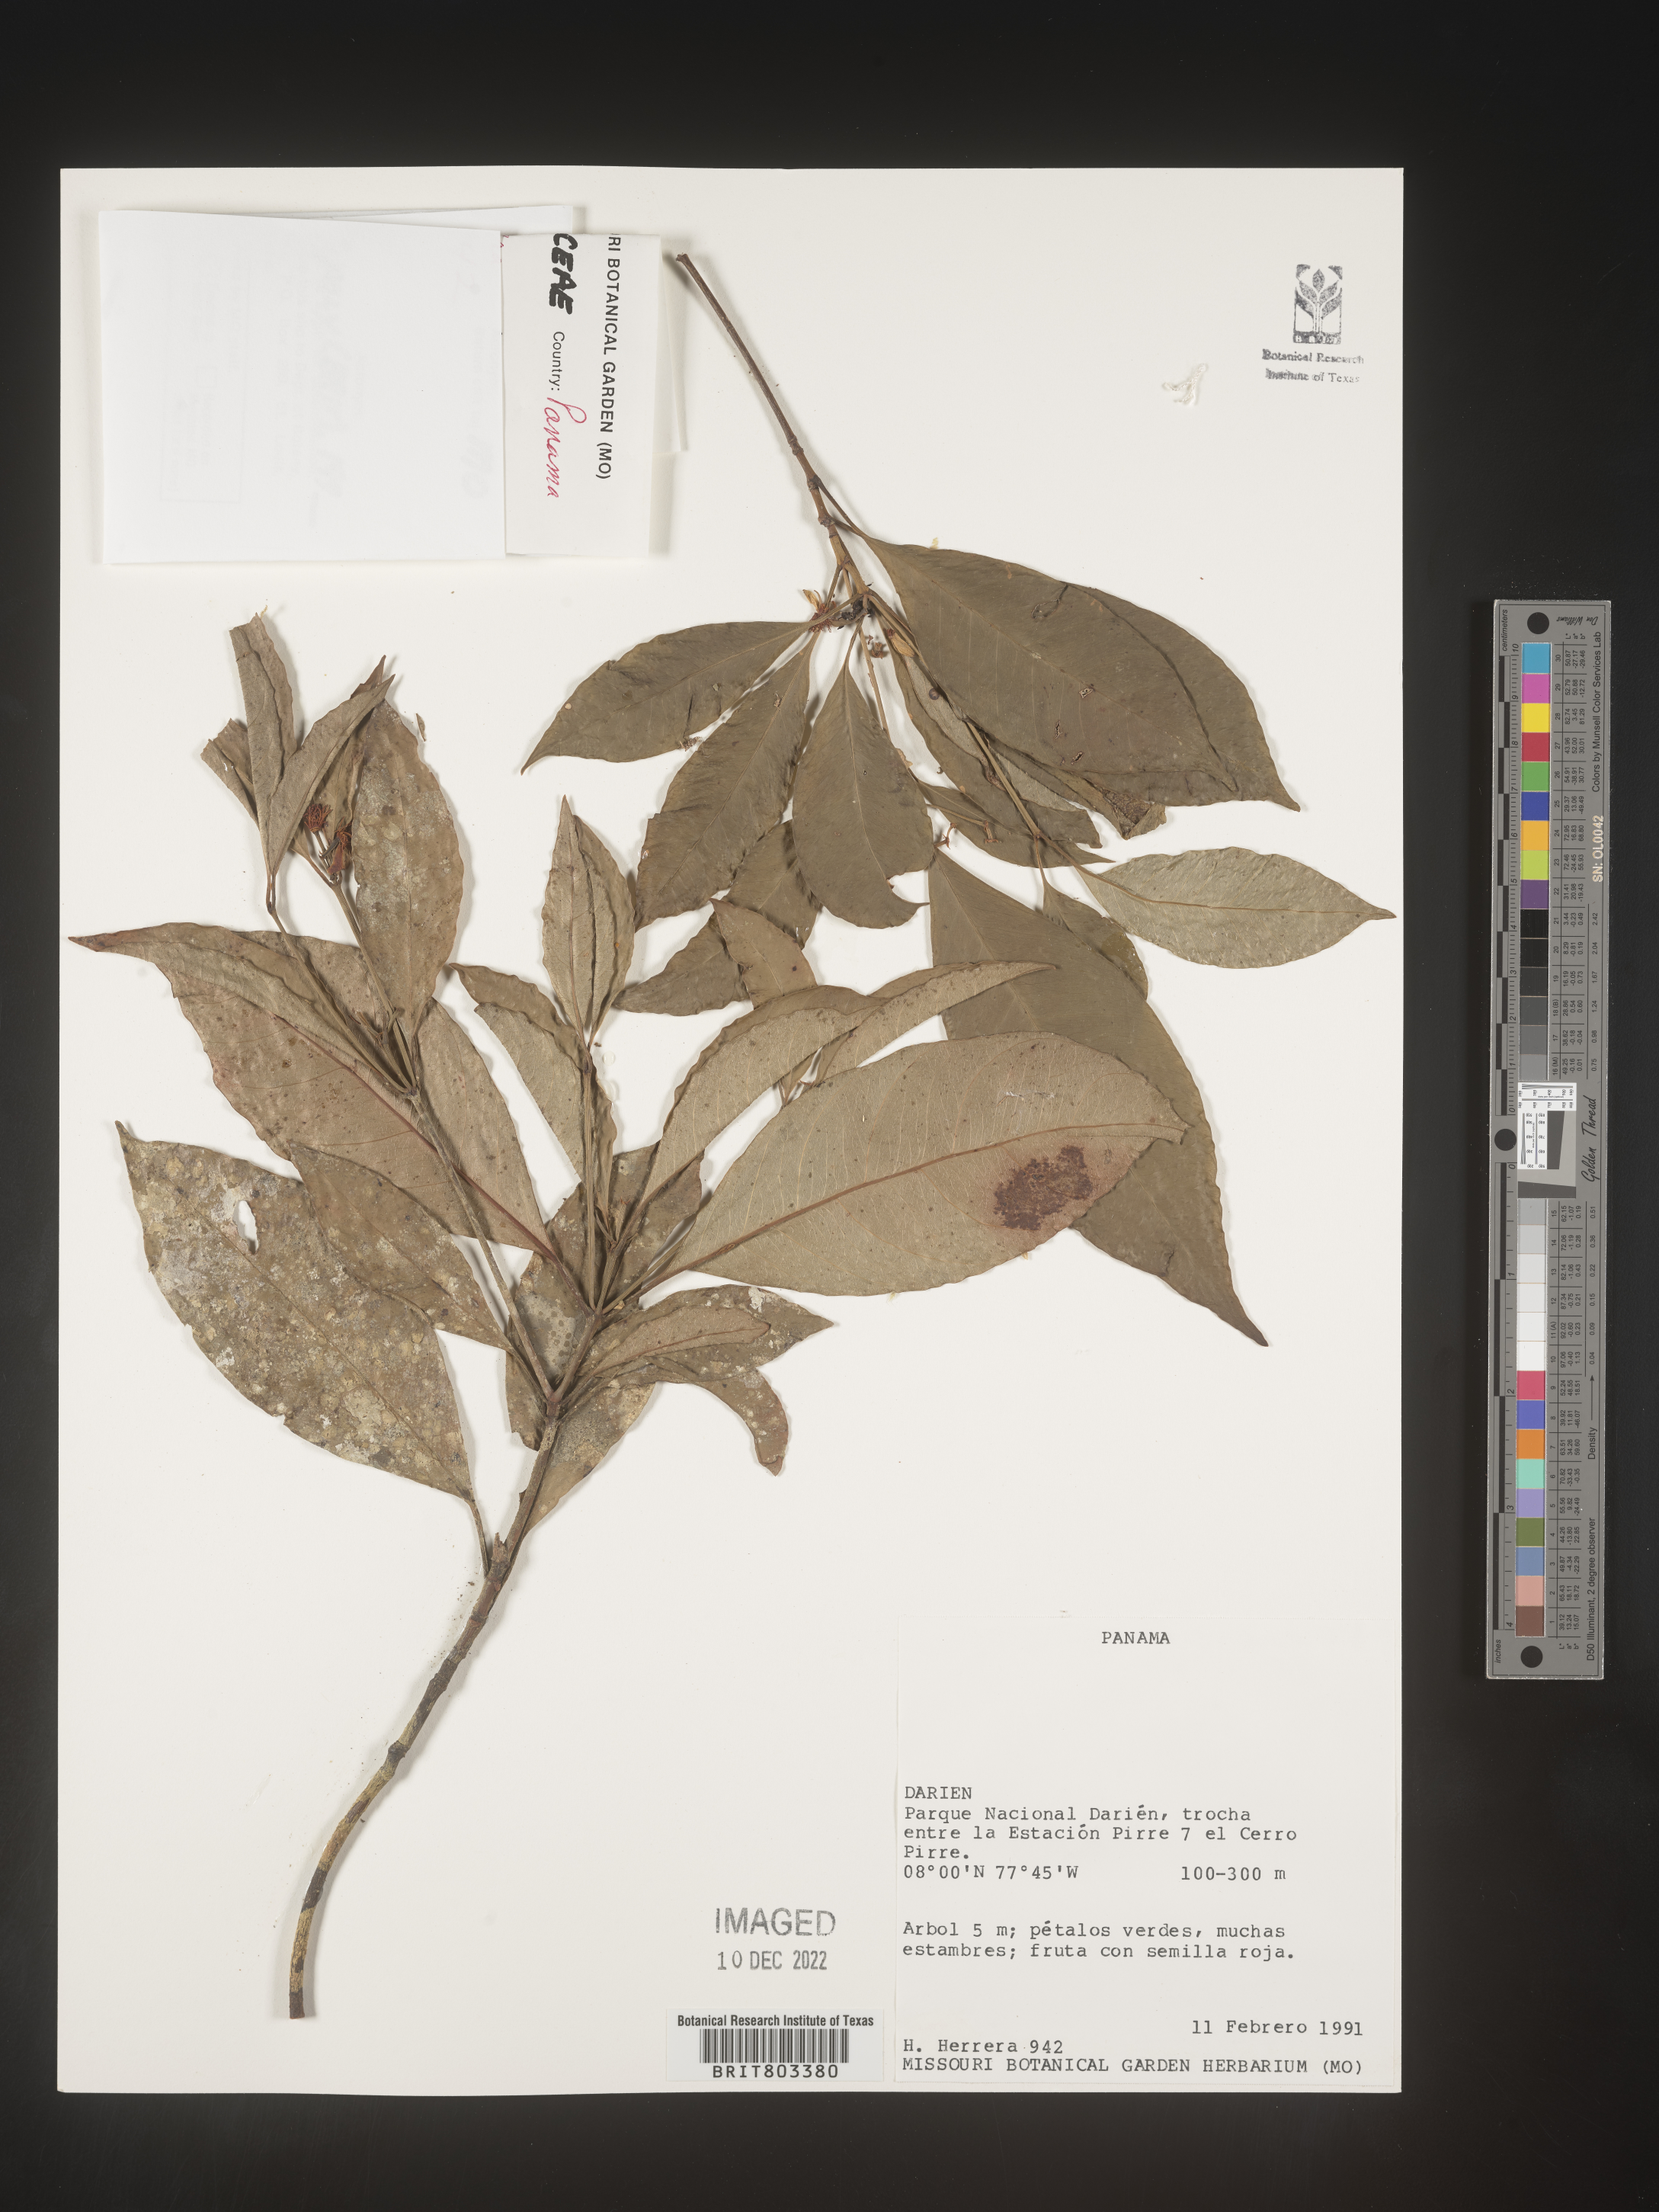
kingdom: Plantae
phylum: Tracheophyta
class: Magnoliopsida
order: Malpighiales
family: Clusiaceae
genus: Tovomita
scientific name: Tovomita
